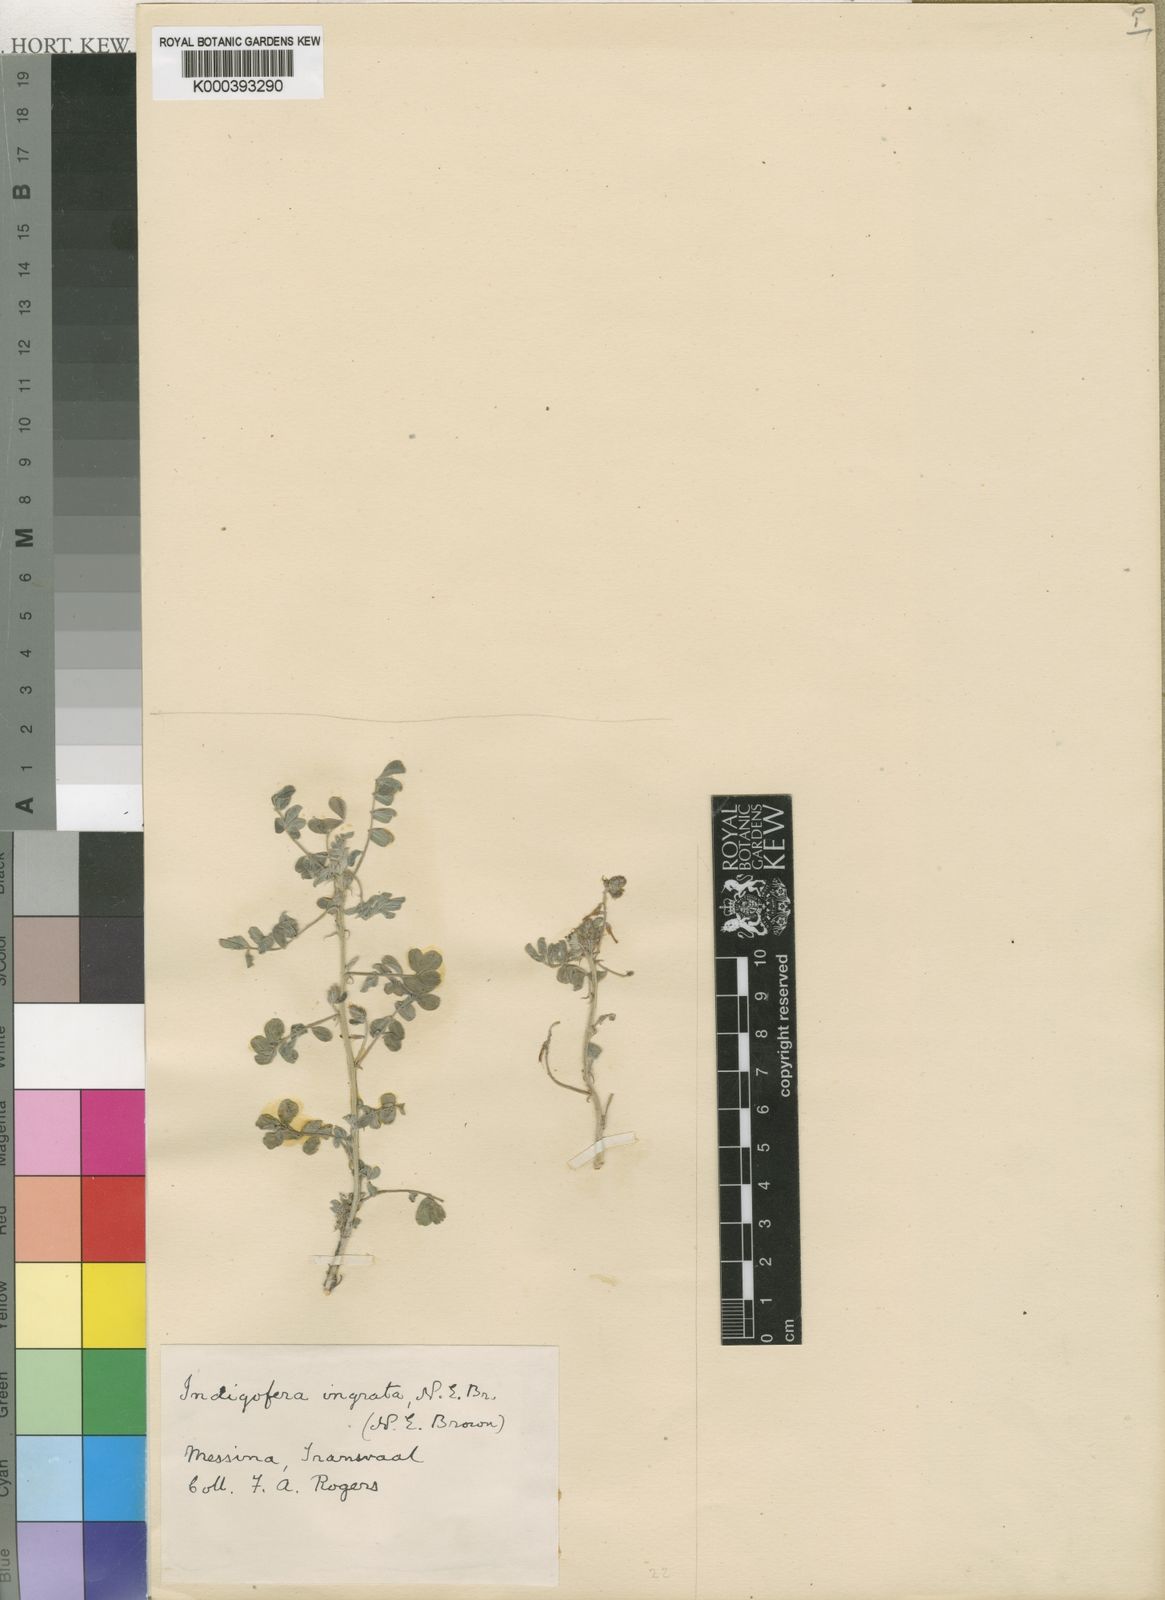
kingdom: Plantae
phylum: Tracheophyta
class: Magnoliopsida
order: Fabales
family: Fabaceae
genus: Indigofera
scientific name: Indigofera ingrata
